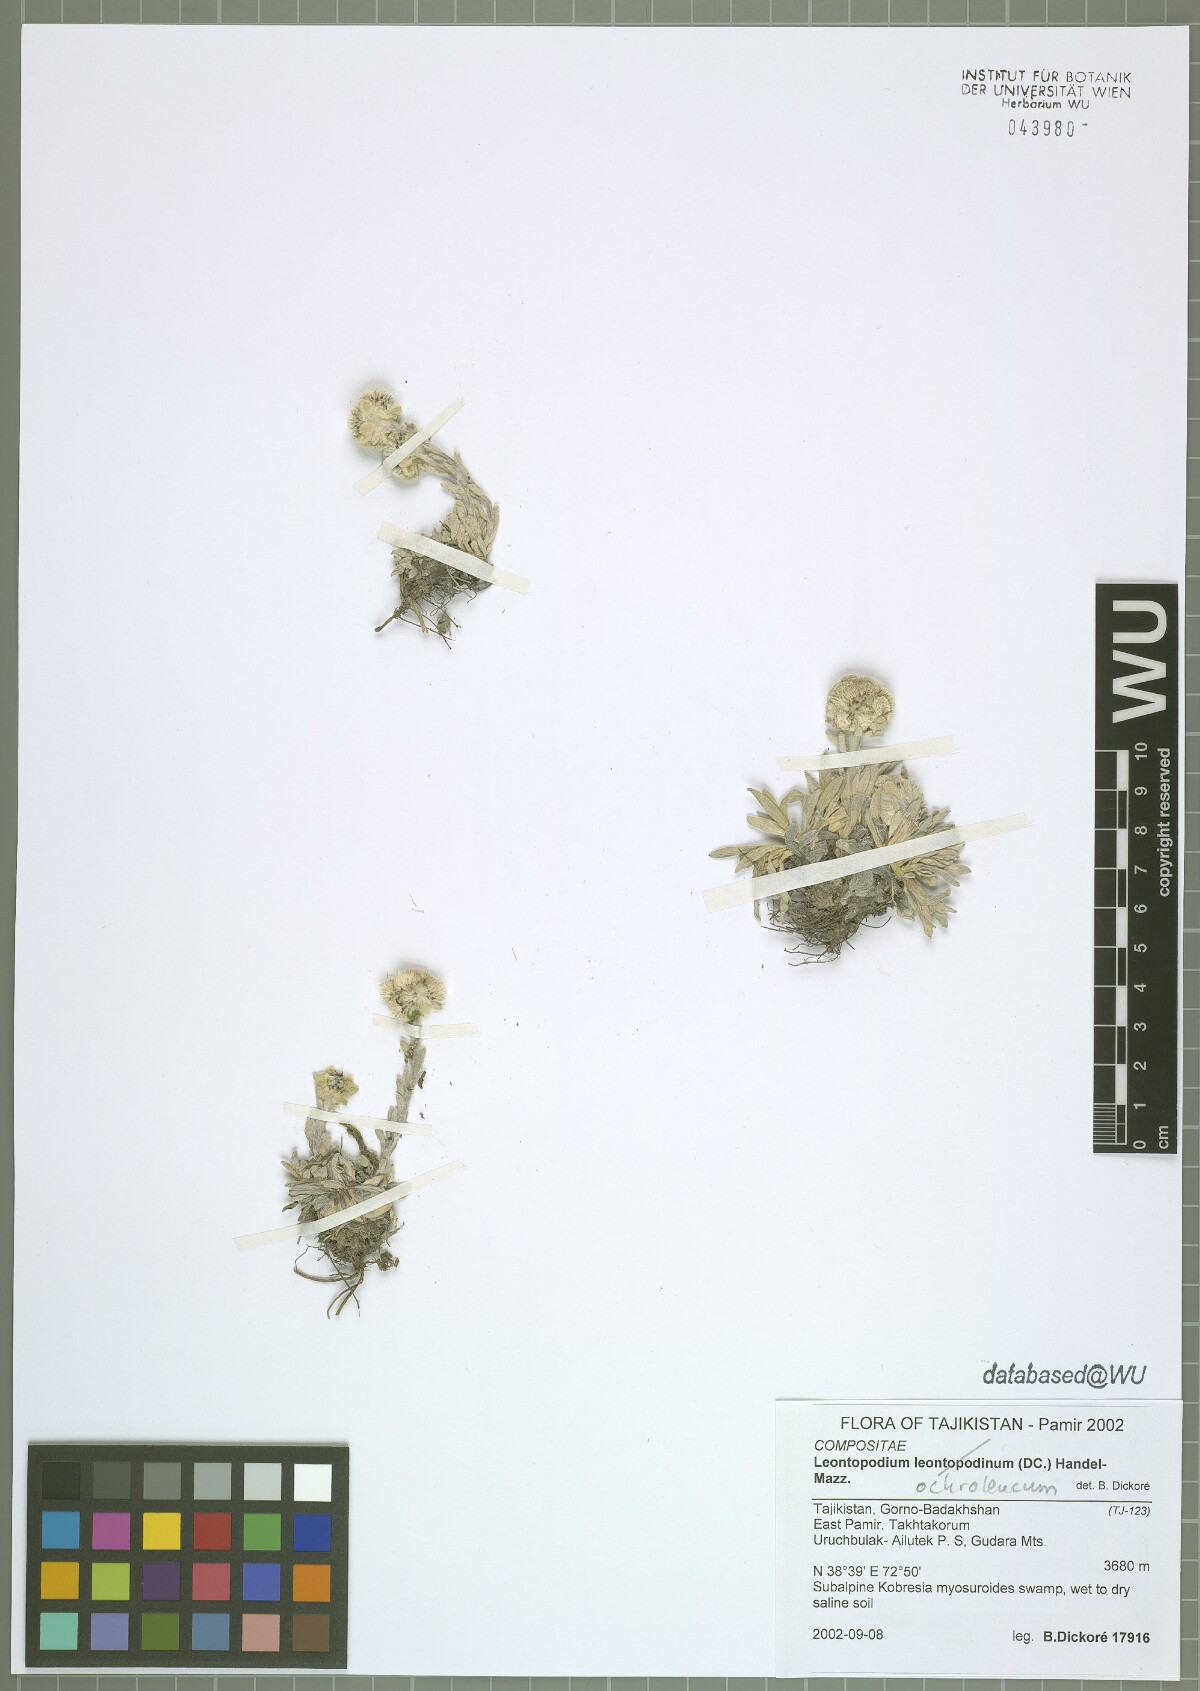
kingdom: Plantae
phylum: Tracheophyta
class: Magnoliopsida
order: Asterales
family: Asteraceae
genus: Leontopodium
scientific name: Leontopodium leontopodinum
